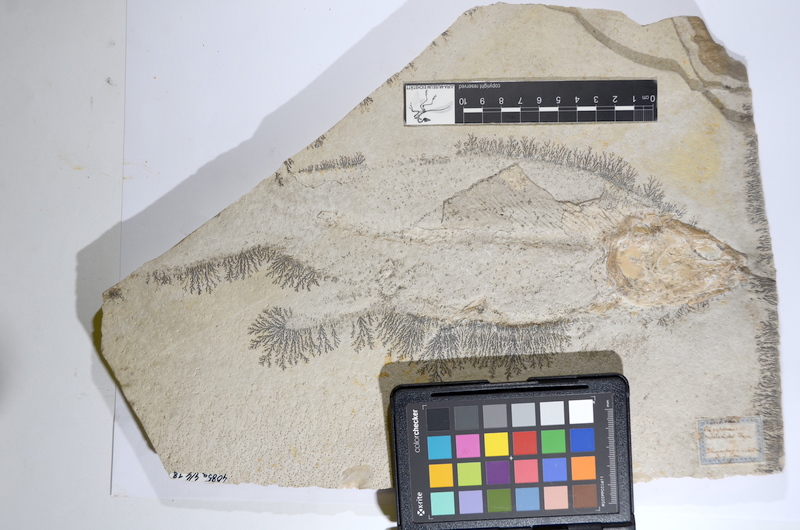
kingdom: Animalia
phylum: Chordata
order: Amiiformes
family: Ionoscopidae
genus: Ionoscopus
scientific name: Ionoscopus cyprinoides
